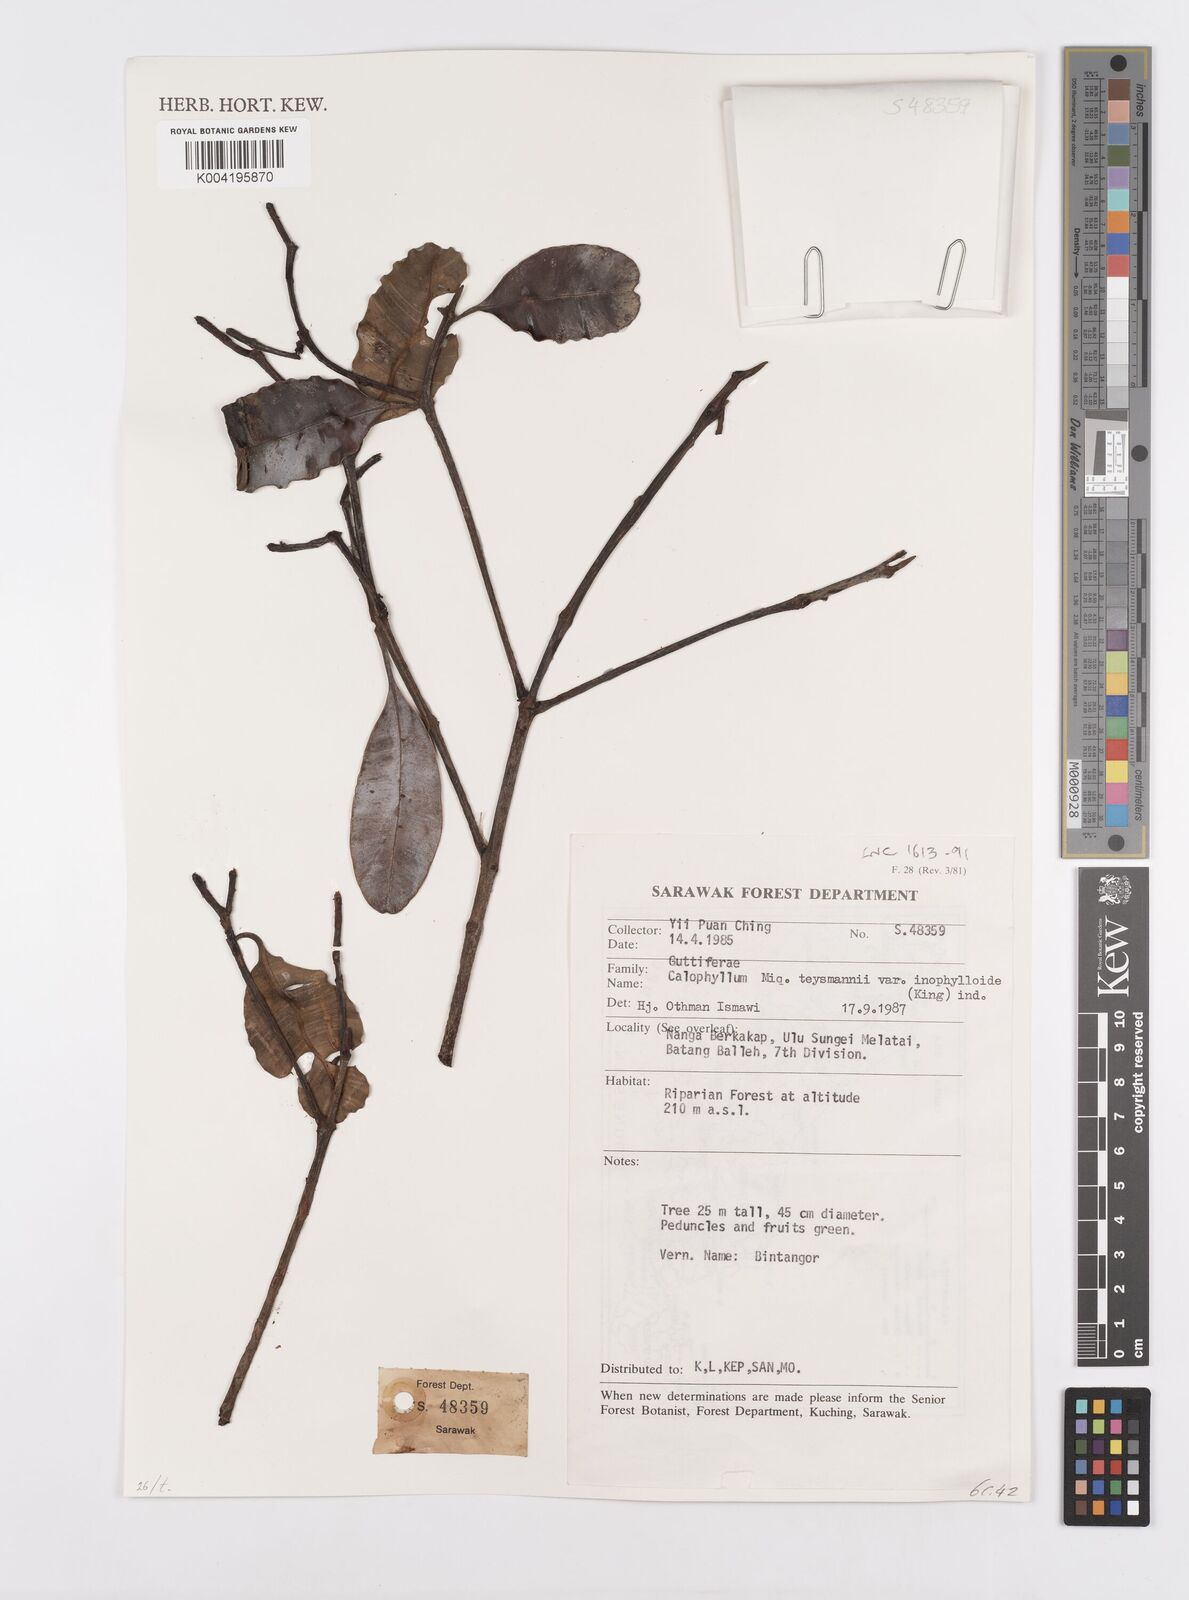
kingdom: Plantae
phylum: Tracheophyta
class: Magnoliopsida
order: Malpighiales
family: Calophyllaceae
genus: Calophyllum
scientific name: Calophyllum teysmannii
